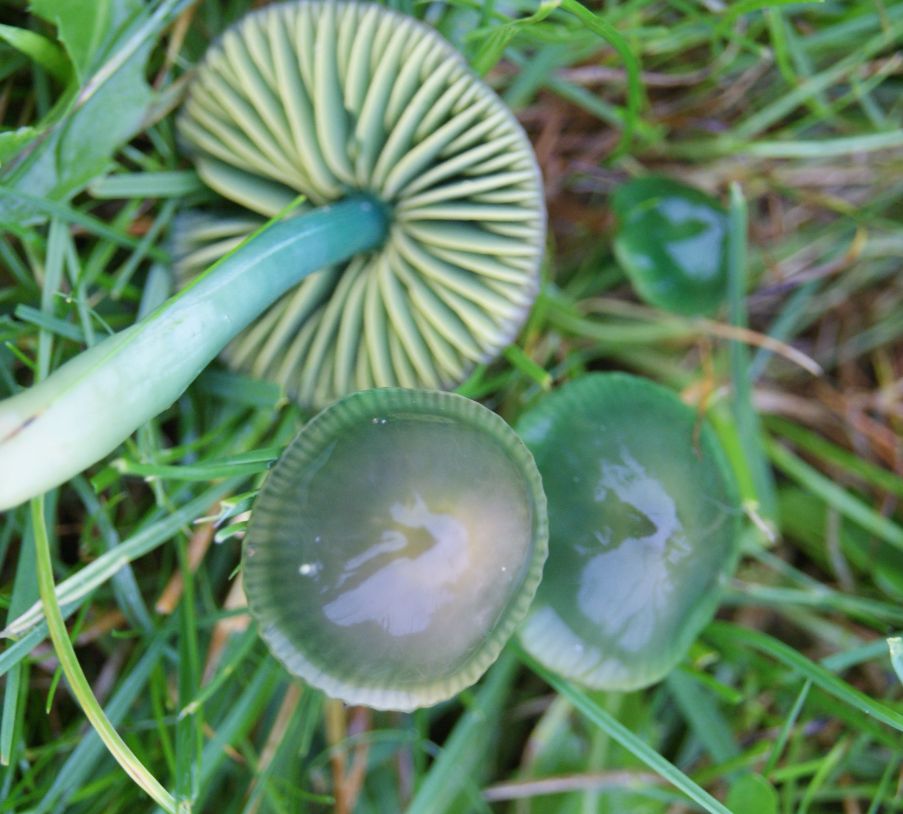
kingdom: Fungi
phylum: Basidiomycota
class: Agaricomycetes
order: Agaricales
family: Hygrophoraceae
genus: Gliophorus
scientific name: Gliophorus psittacinus
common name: papegøje-vokshat
